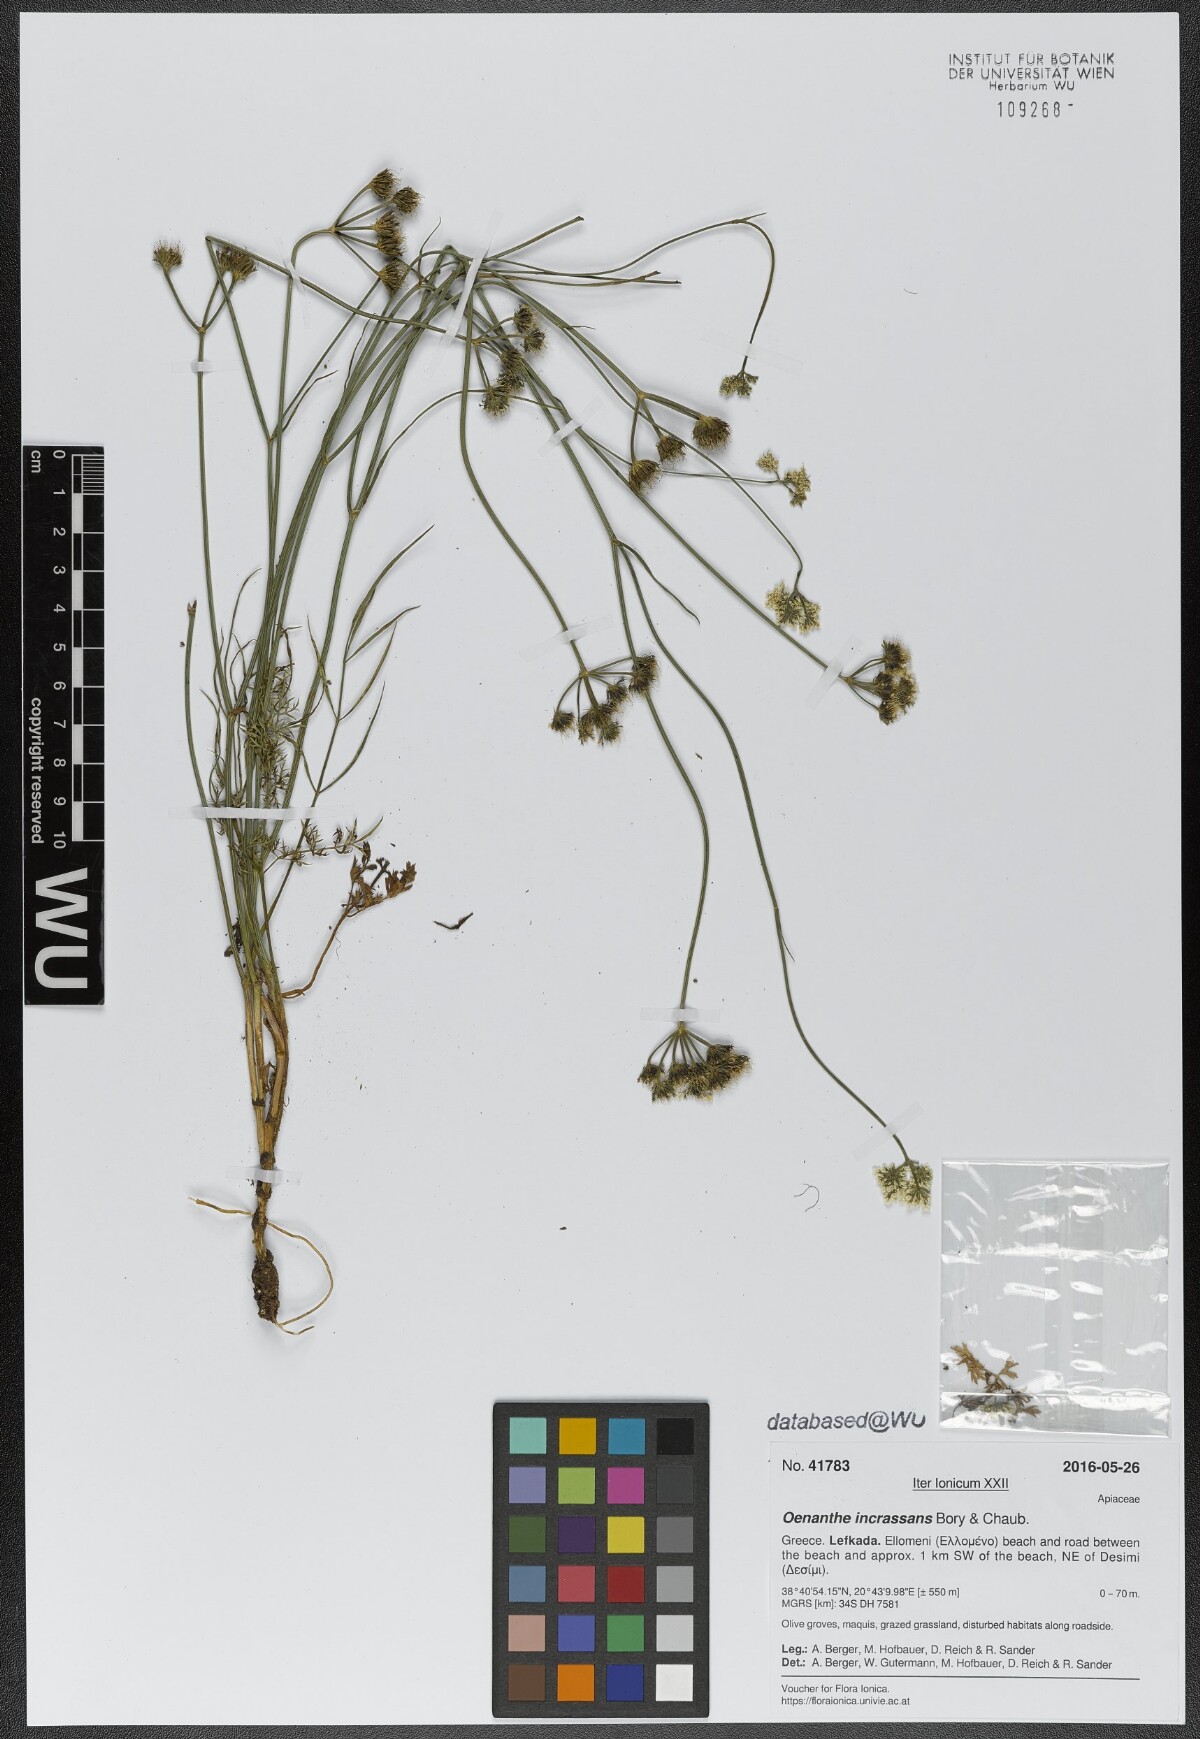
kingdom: Plantae
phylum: Tracheophyta
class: Magnoliopsida
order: Apiales
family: Apiaceae
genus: Oenanthe
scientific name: Oenanthe pimpinelloides
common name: Corky-fruited water-dropwort
